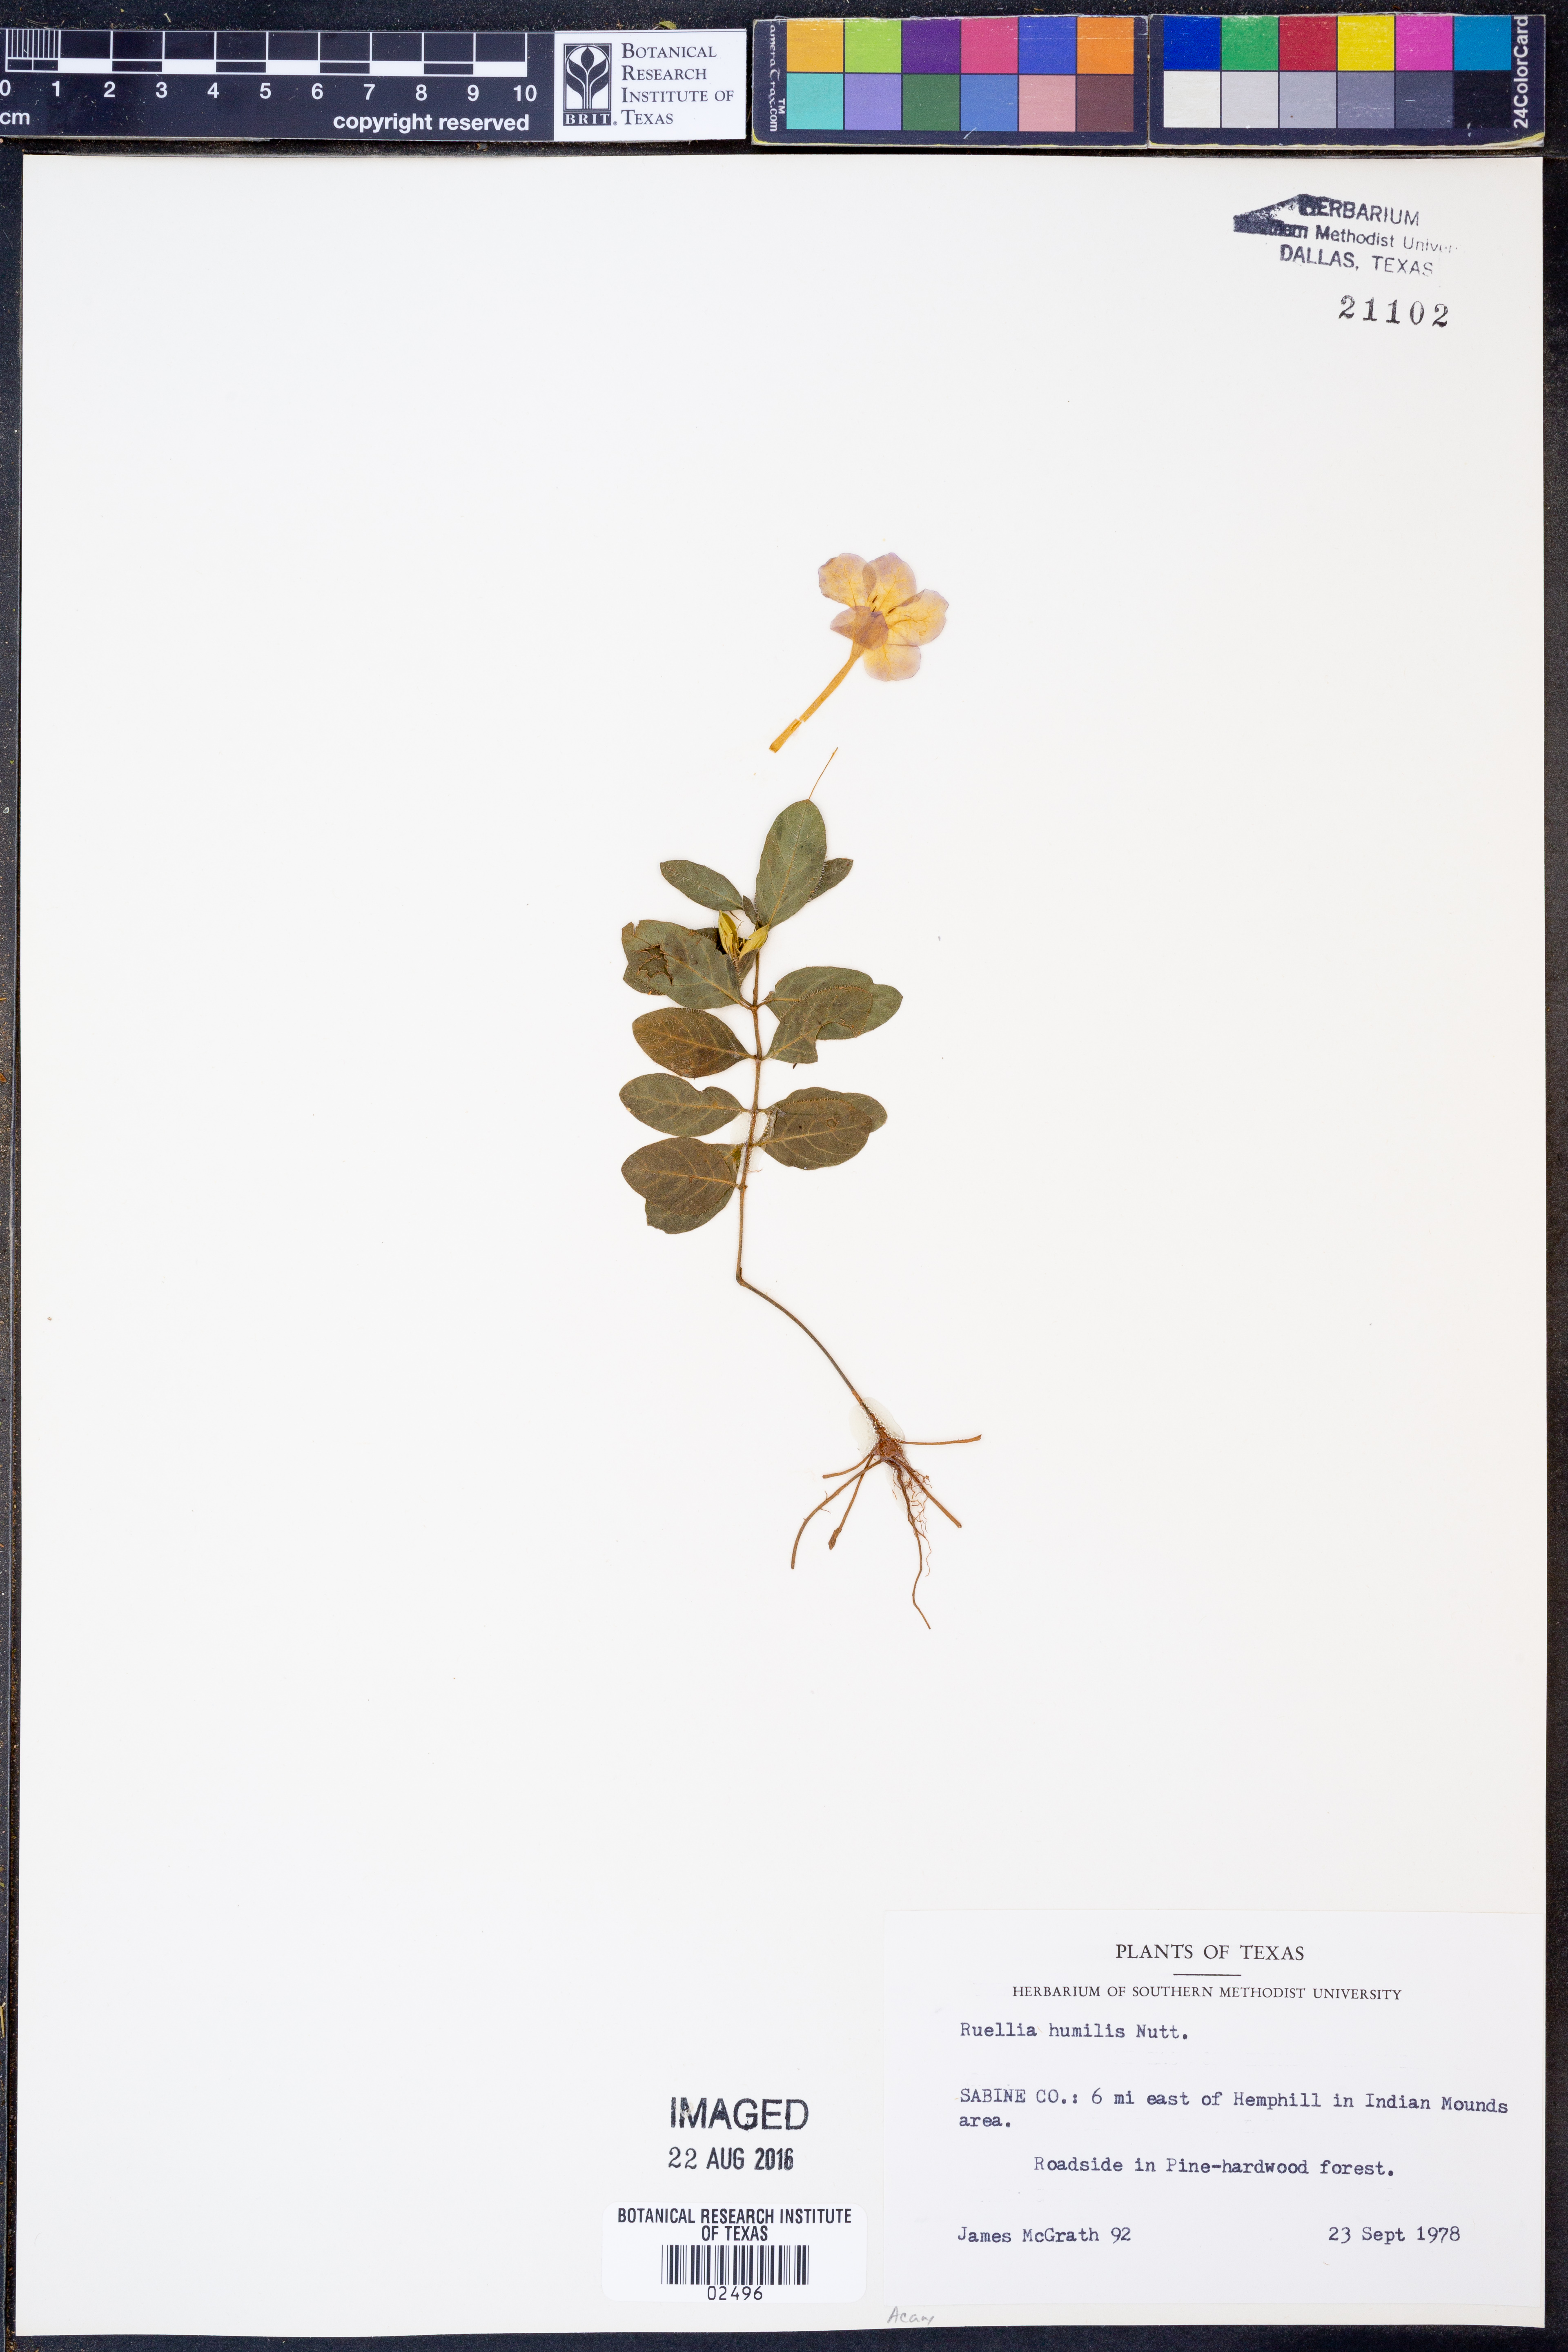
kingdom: Plantae
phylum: Tracheophyta
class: Magnoliopsida
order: Lamiales
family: Acanthaceae
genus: Ruellia
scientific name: Ruellia humilis
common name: Fringe-leaf ruellia
